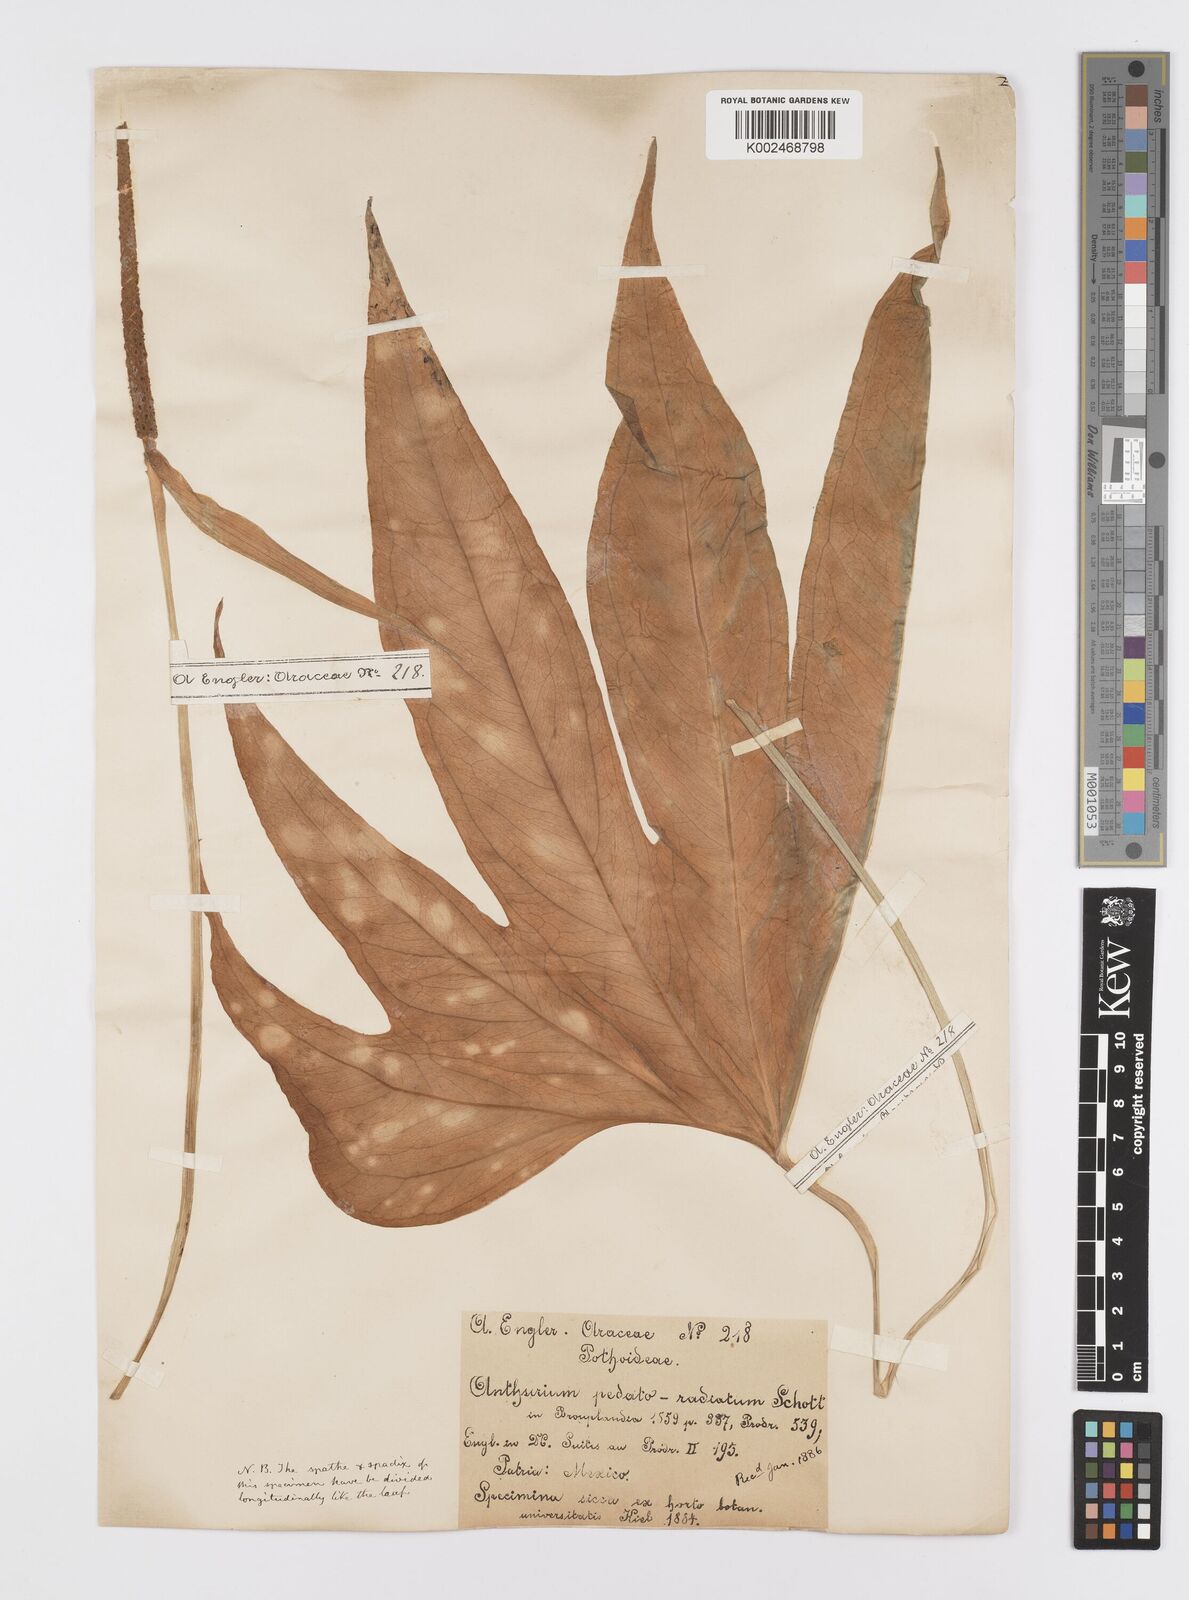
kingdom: Plantae
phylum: Tracheophyta
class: Liliopsida
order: Alismatales
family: Araceae
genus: Anthurium
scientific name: Anthurium pedatoradiatum
